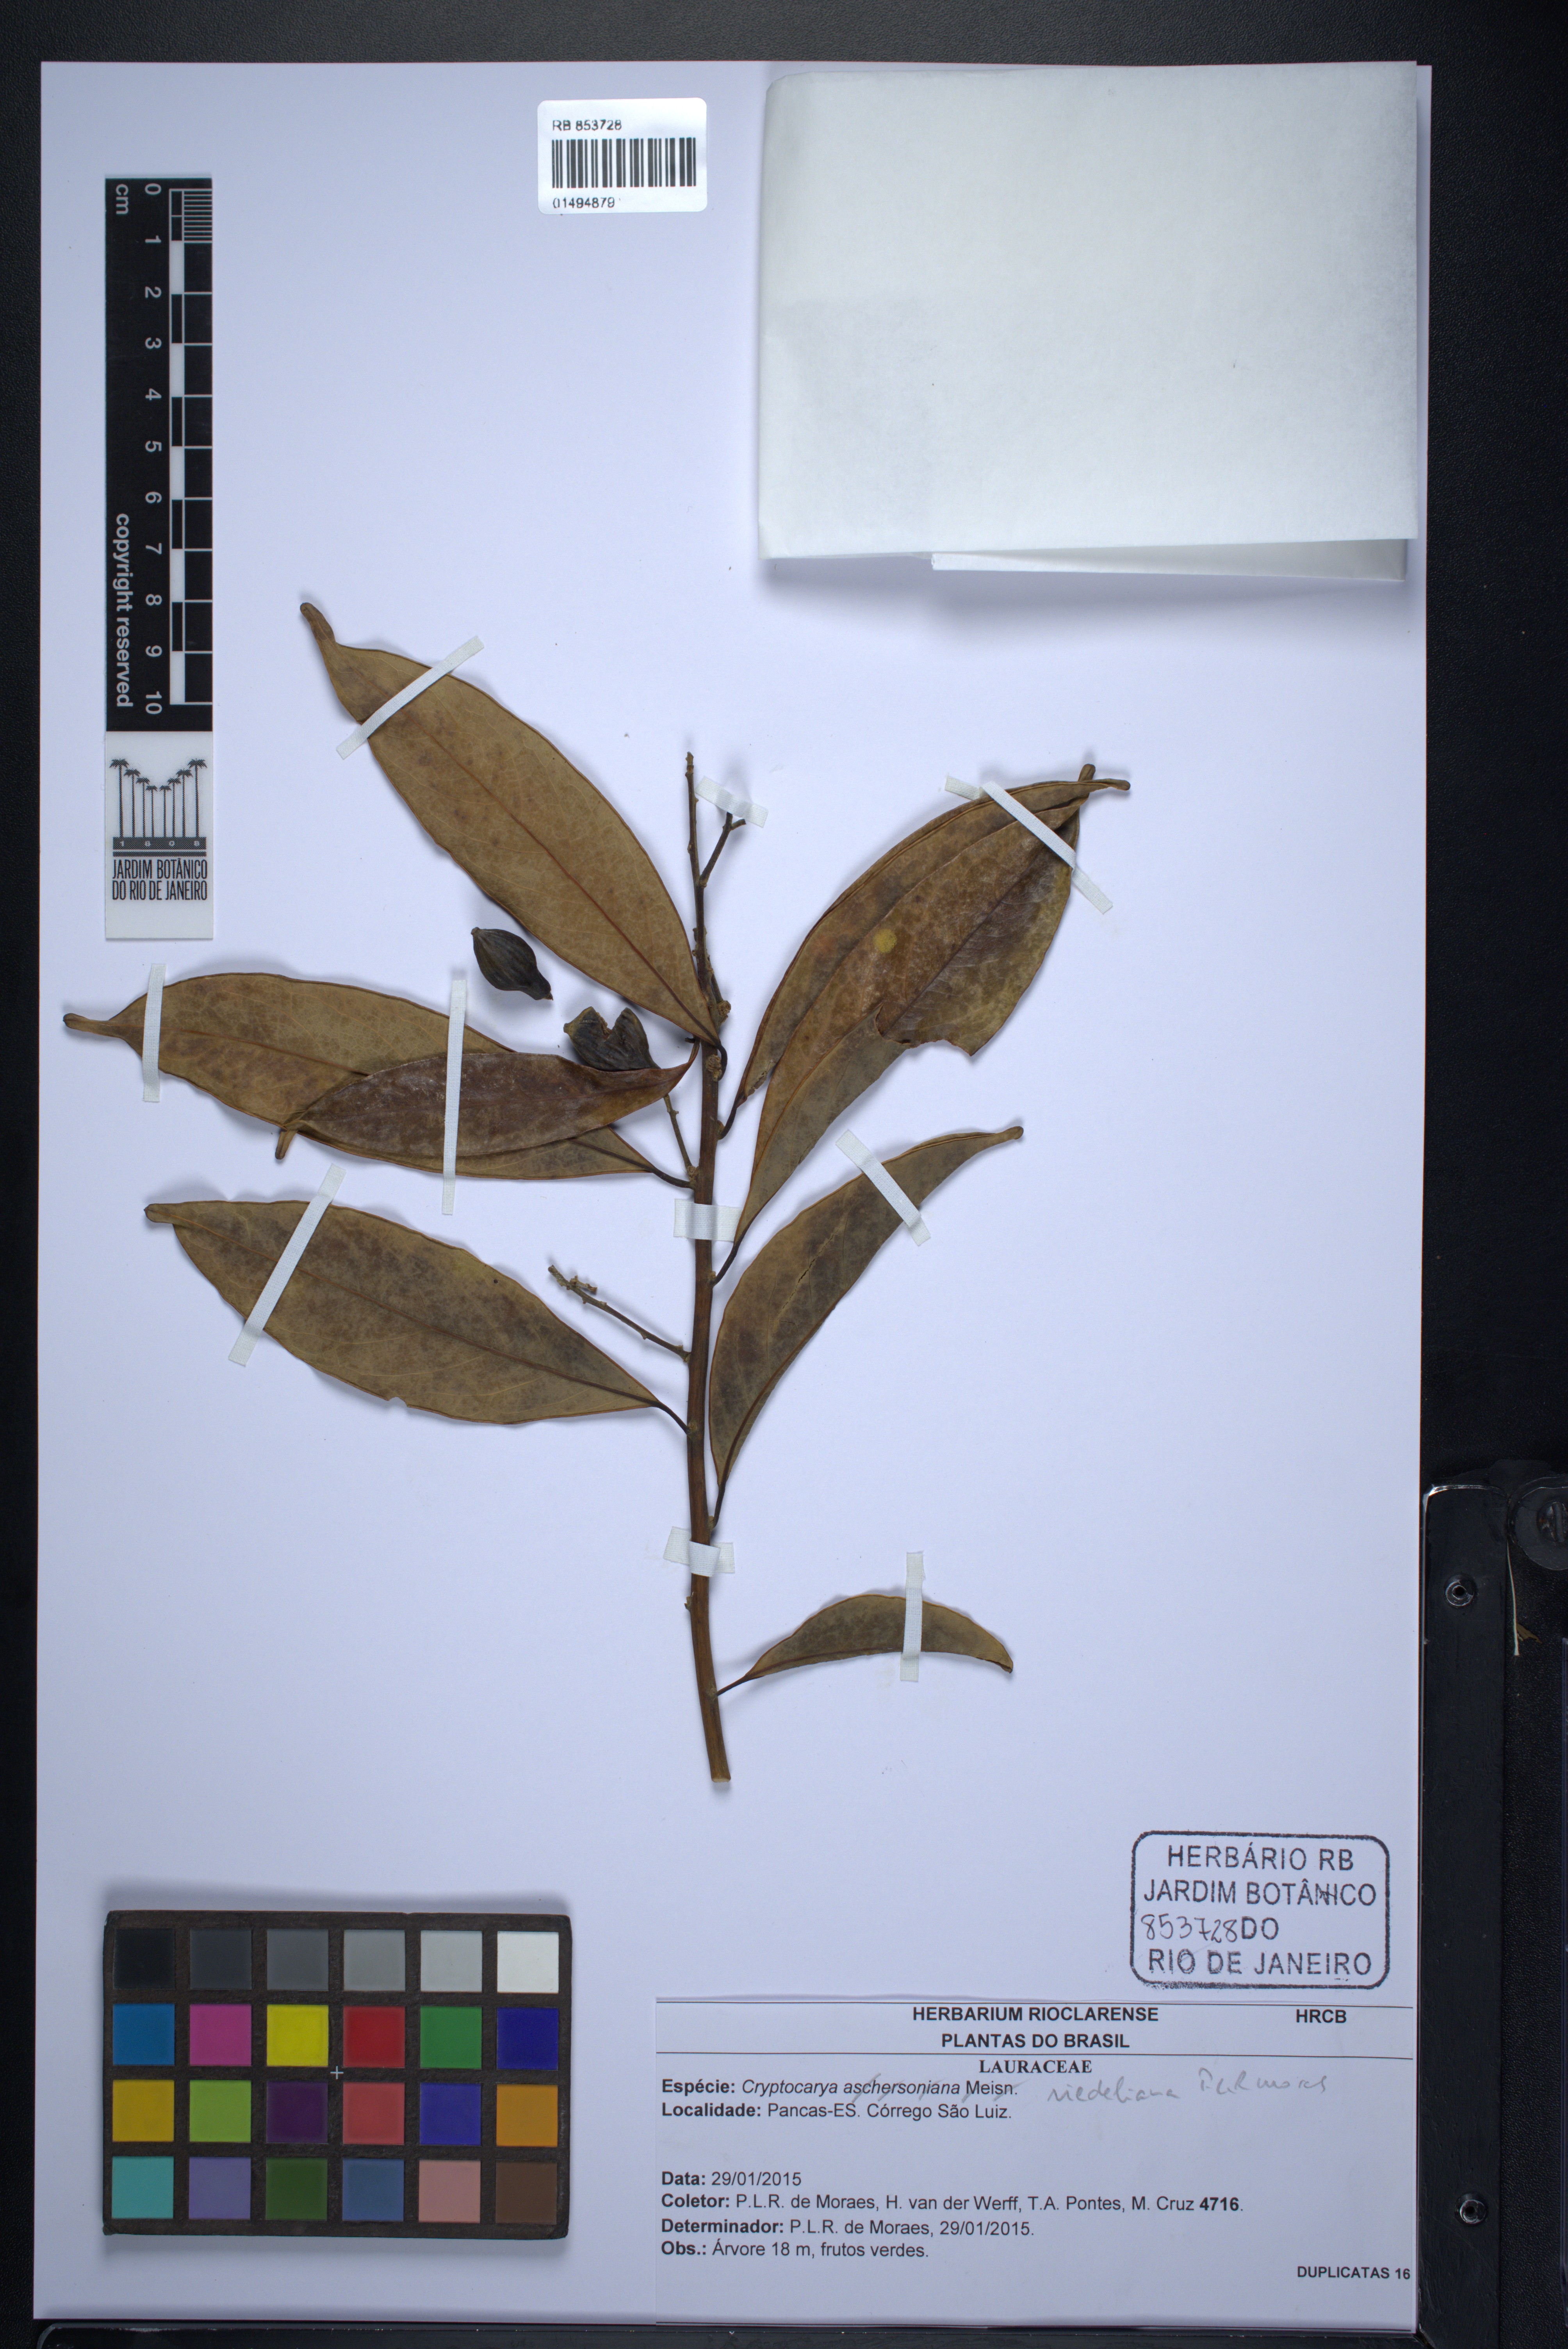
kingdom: Plantae
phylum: Tracheophyta
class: Magnoliopsida
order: Laurales
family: Lauraceae
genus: Cryptocarya
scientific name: Cryptocarya riedeliana
